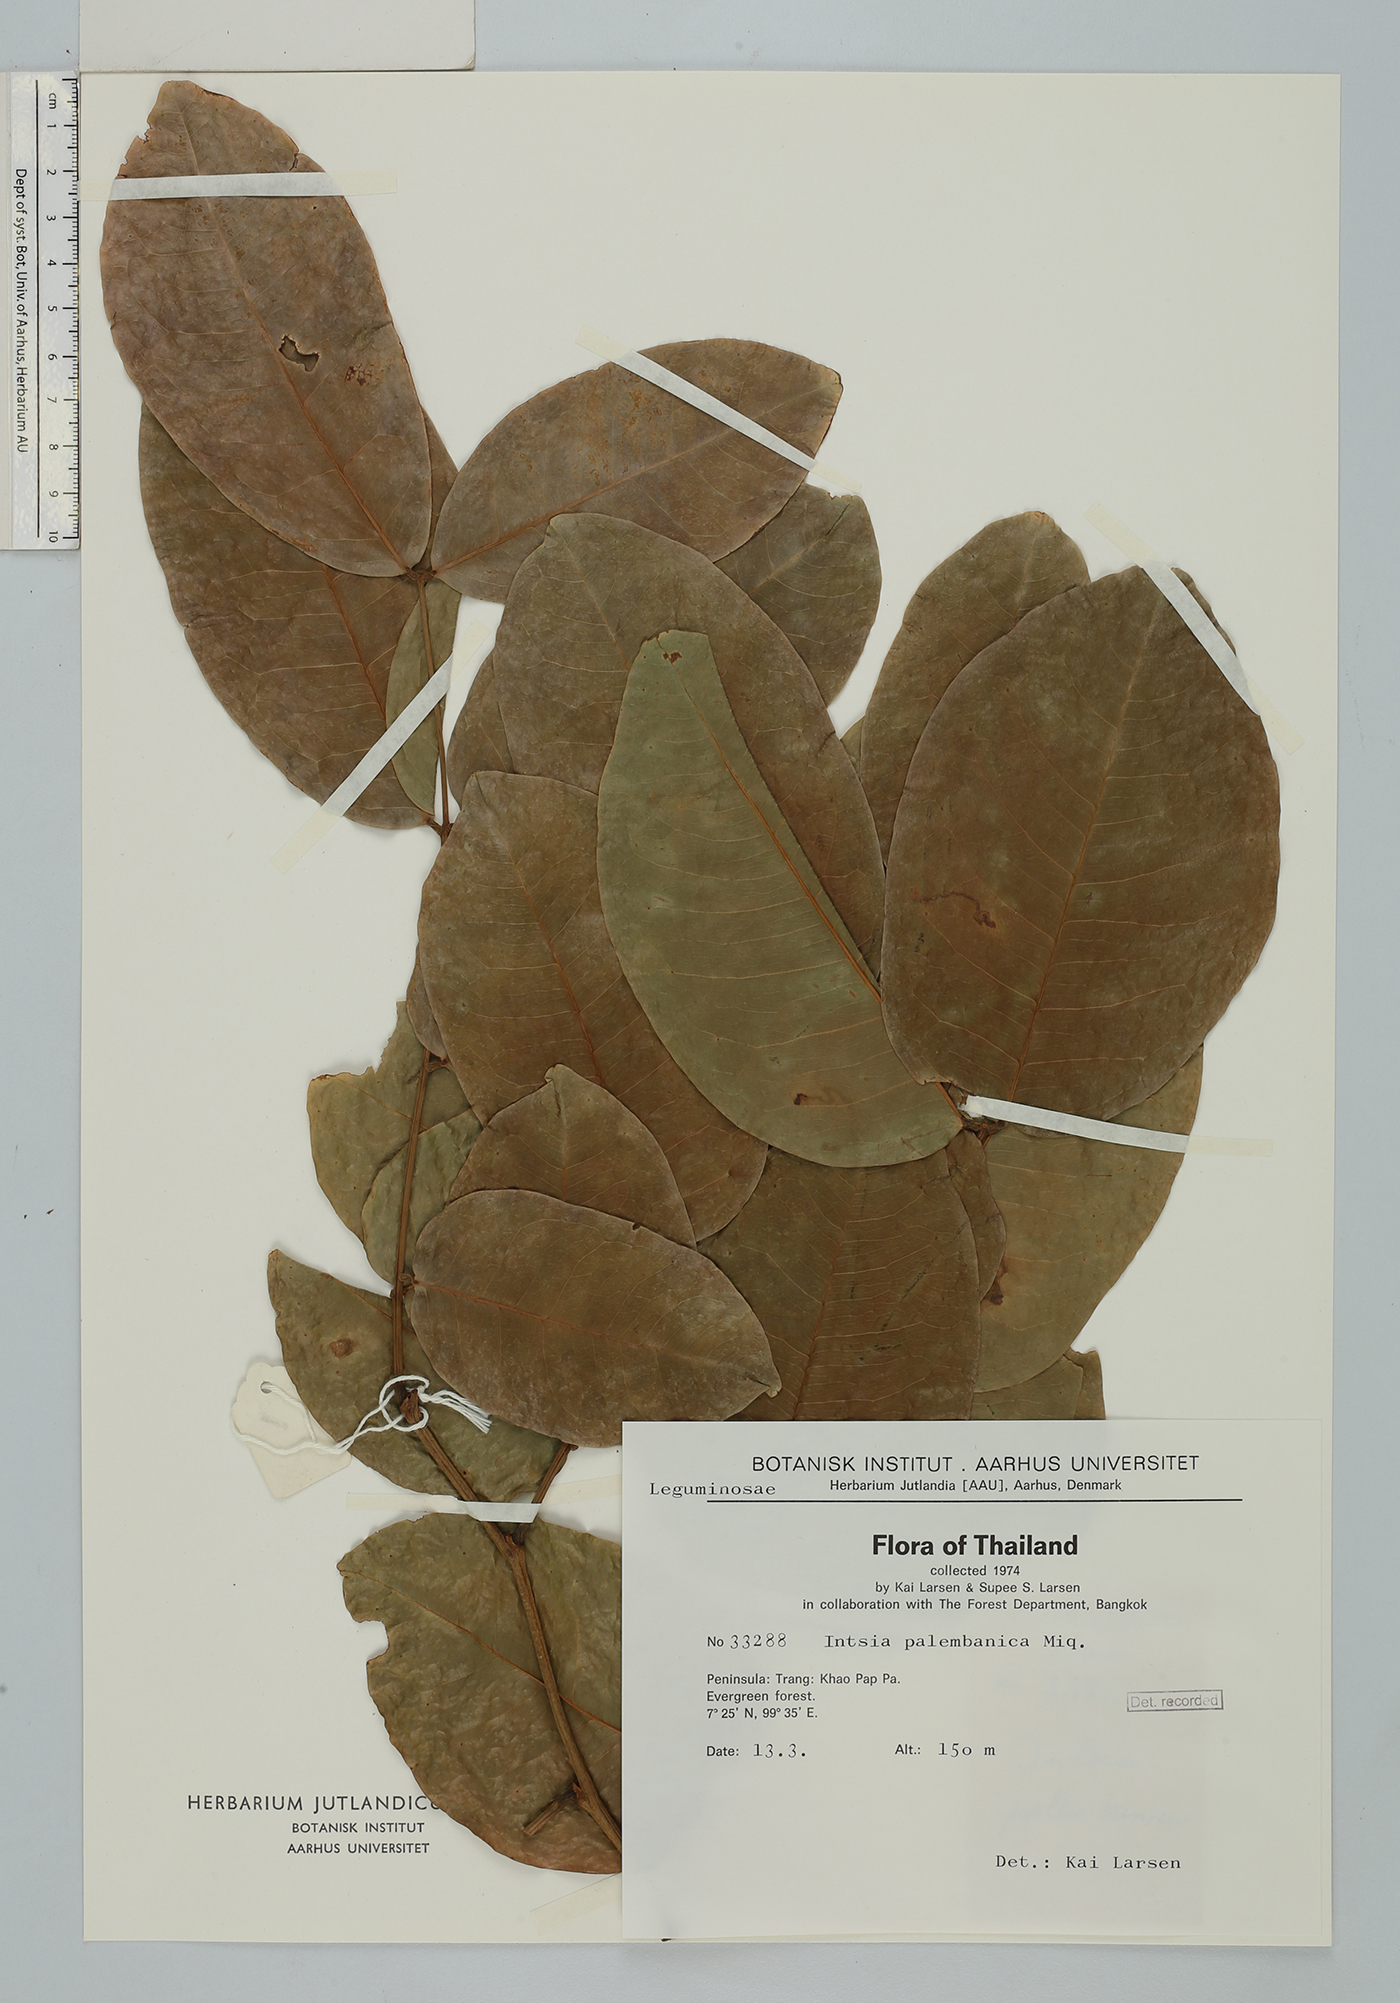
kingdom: Plantae
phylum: Tracheophyta
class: Magnoliopsida
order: Fabales
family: Fabaceae
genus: Intsia
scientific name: Intsia palembanica
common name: Merbau
